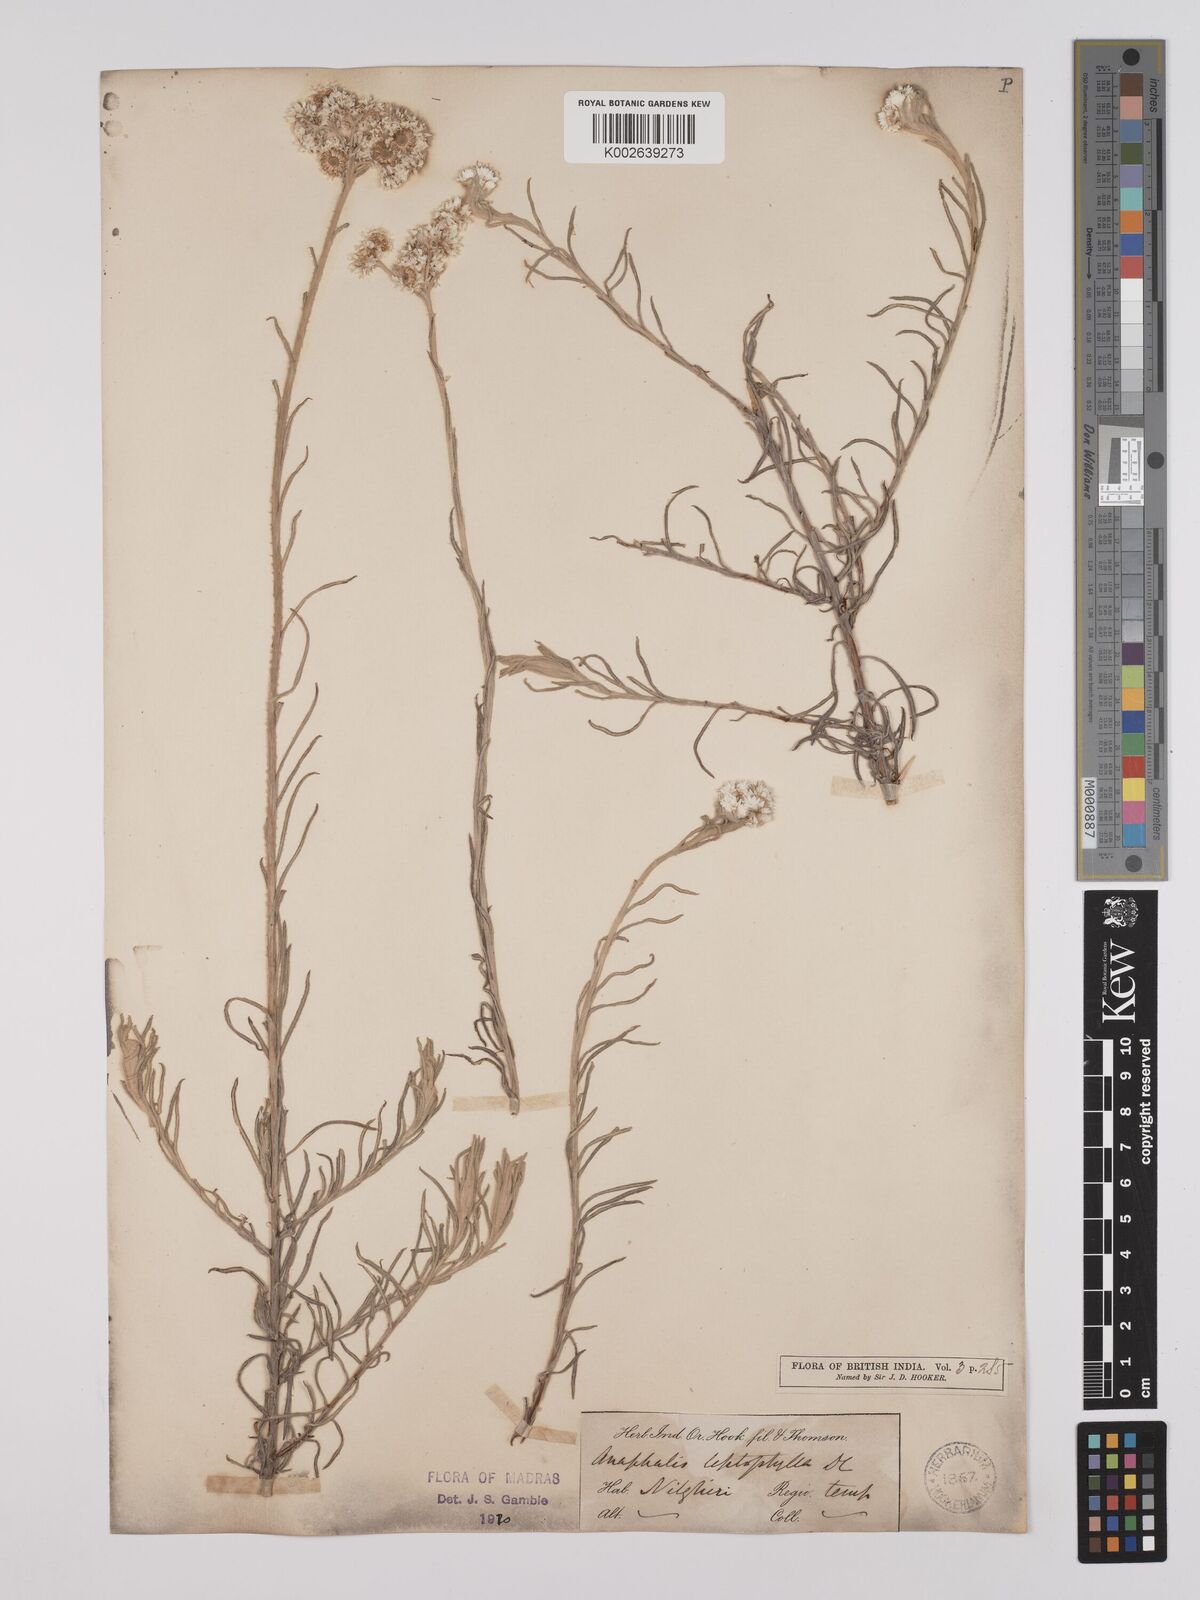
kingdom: Plantae
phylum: Tracheophyta
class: Magnoliopsida
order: Asterales
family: Asteraceae
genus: Anaphalis
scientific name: Anaphalis leptophylla
